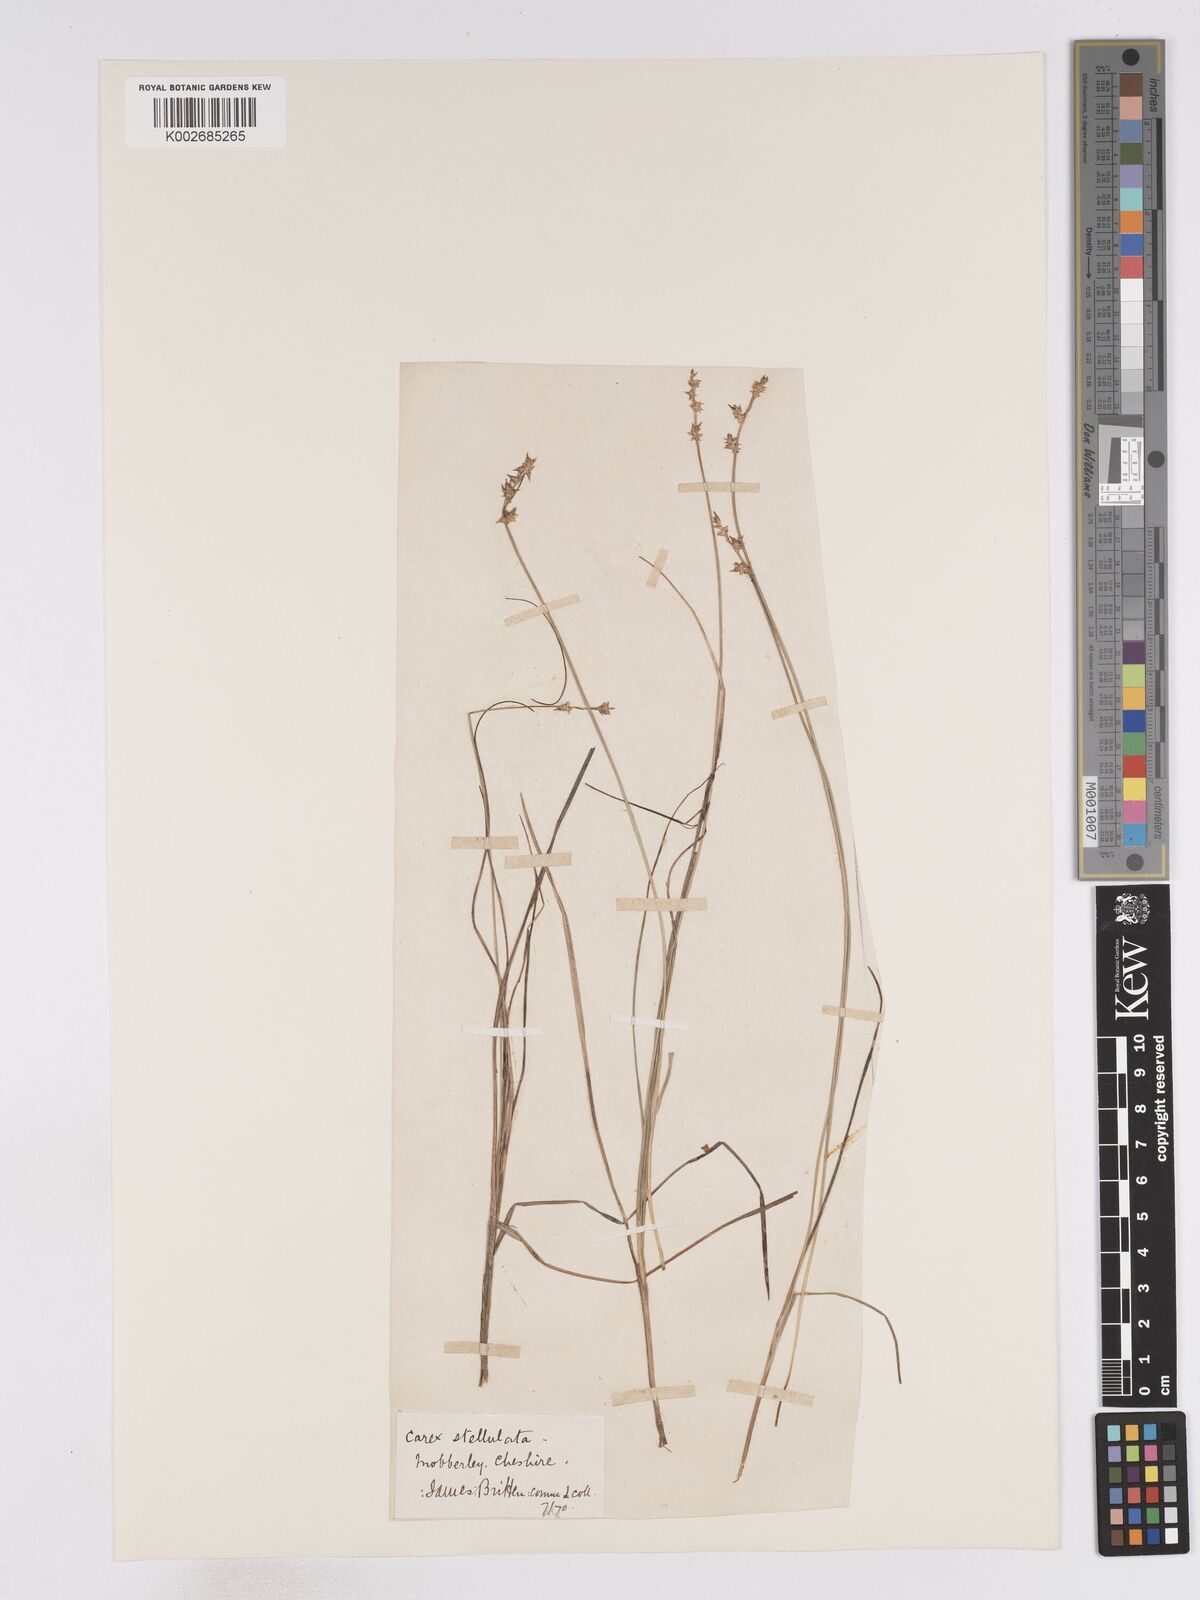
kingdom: Plantae
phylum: Tracheophyta
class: Liliopsida
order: Poales
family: Cyperaceae
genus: Carex
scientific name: Carex echinata
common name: Star sedge
